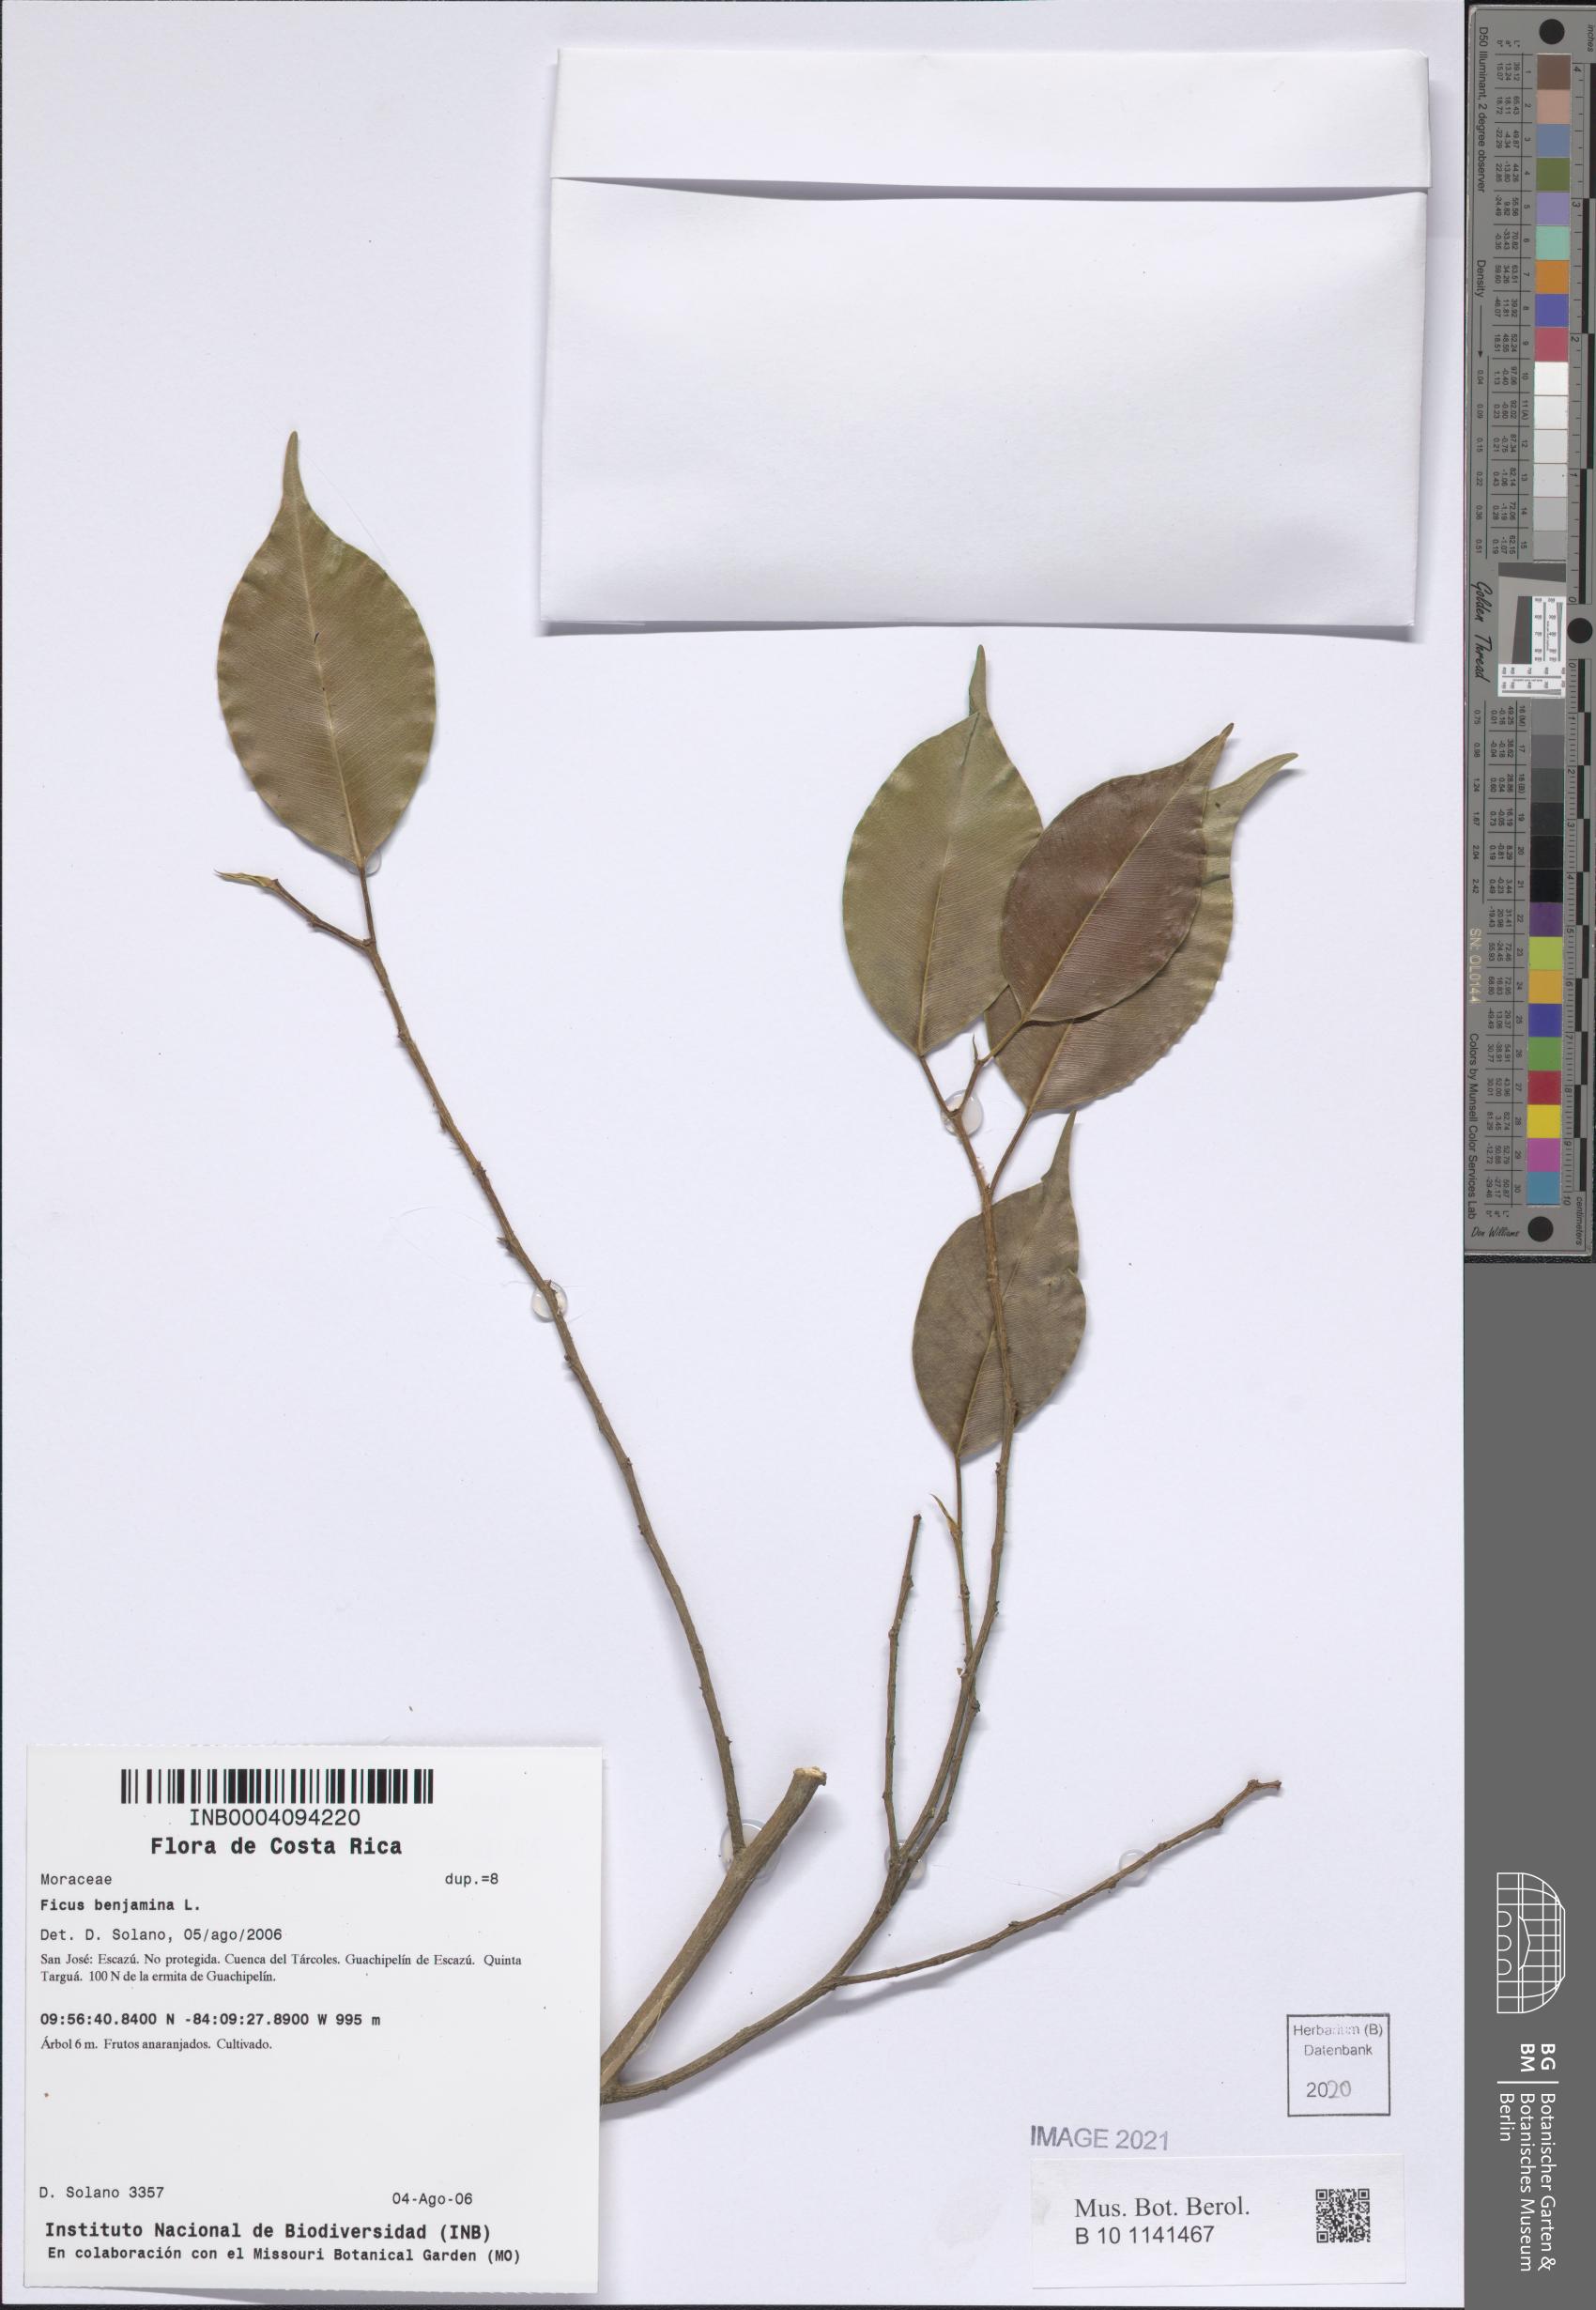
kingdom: Plantae
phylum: Tracheophyta
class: Magnoliopsida
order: Rosales
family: Moraceae
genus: Ficus
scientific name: Ficus benjamina
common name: Weeping fig
